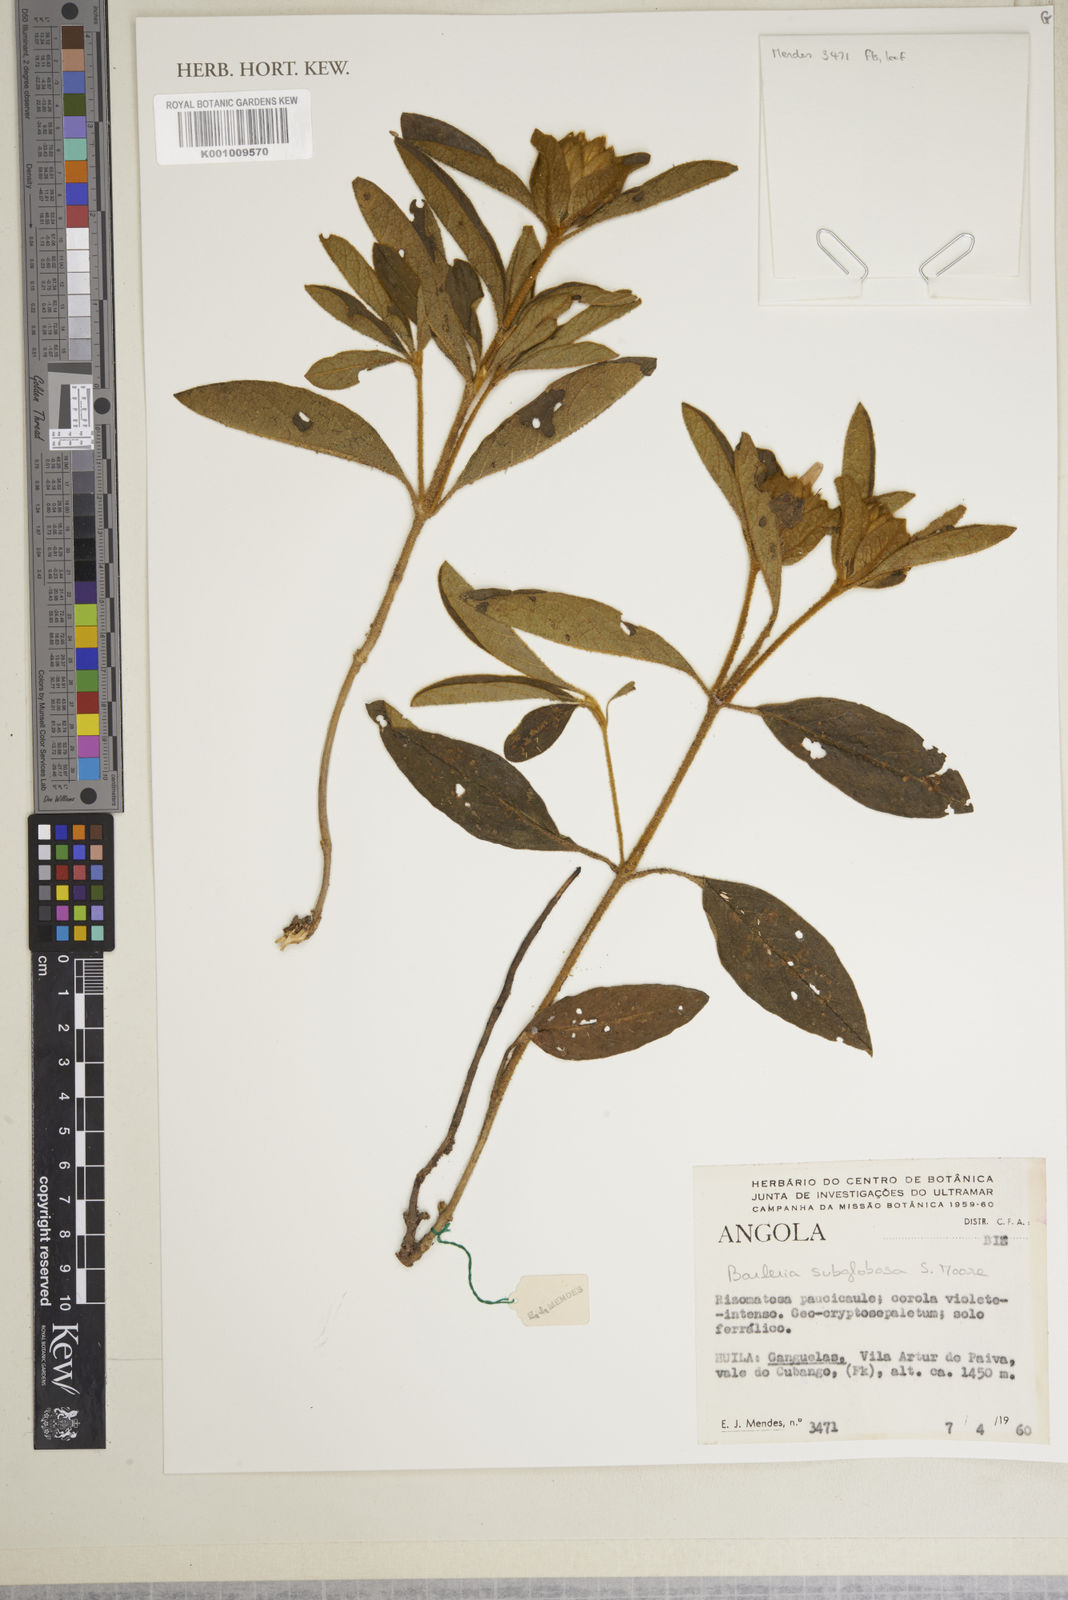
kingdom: Plantae
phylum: Tracheophyta
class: Magnoliopsida
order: Lamiales
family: Acanthaceae
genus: Barleria
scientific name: Barleria subglobosa
